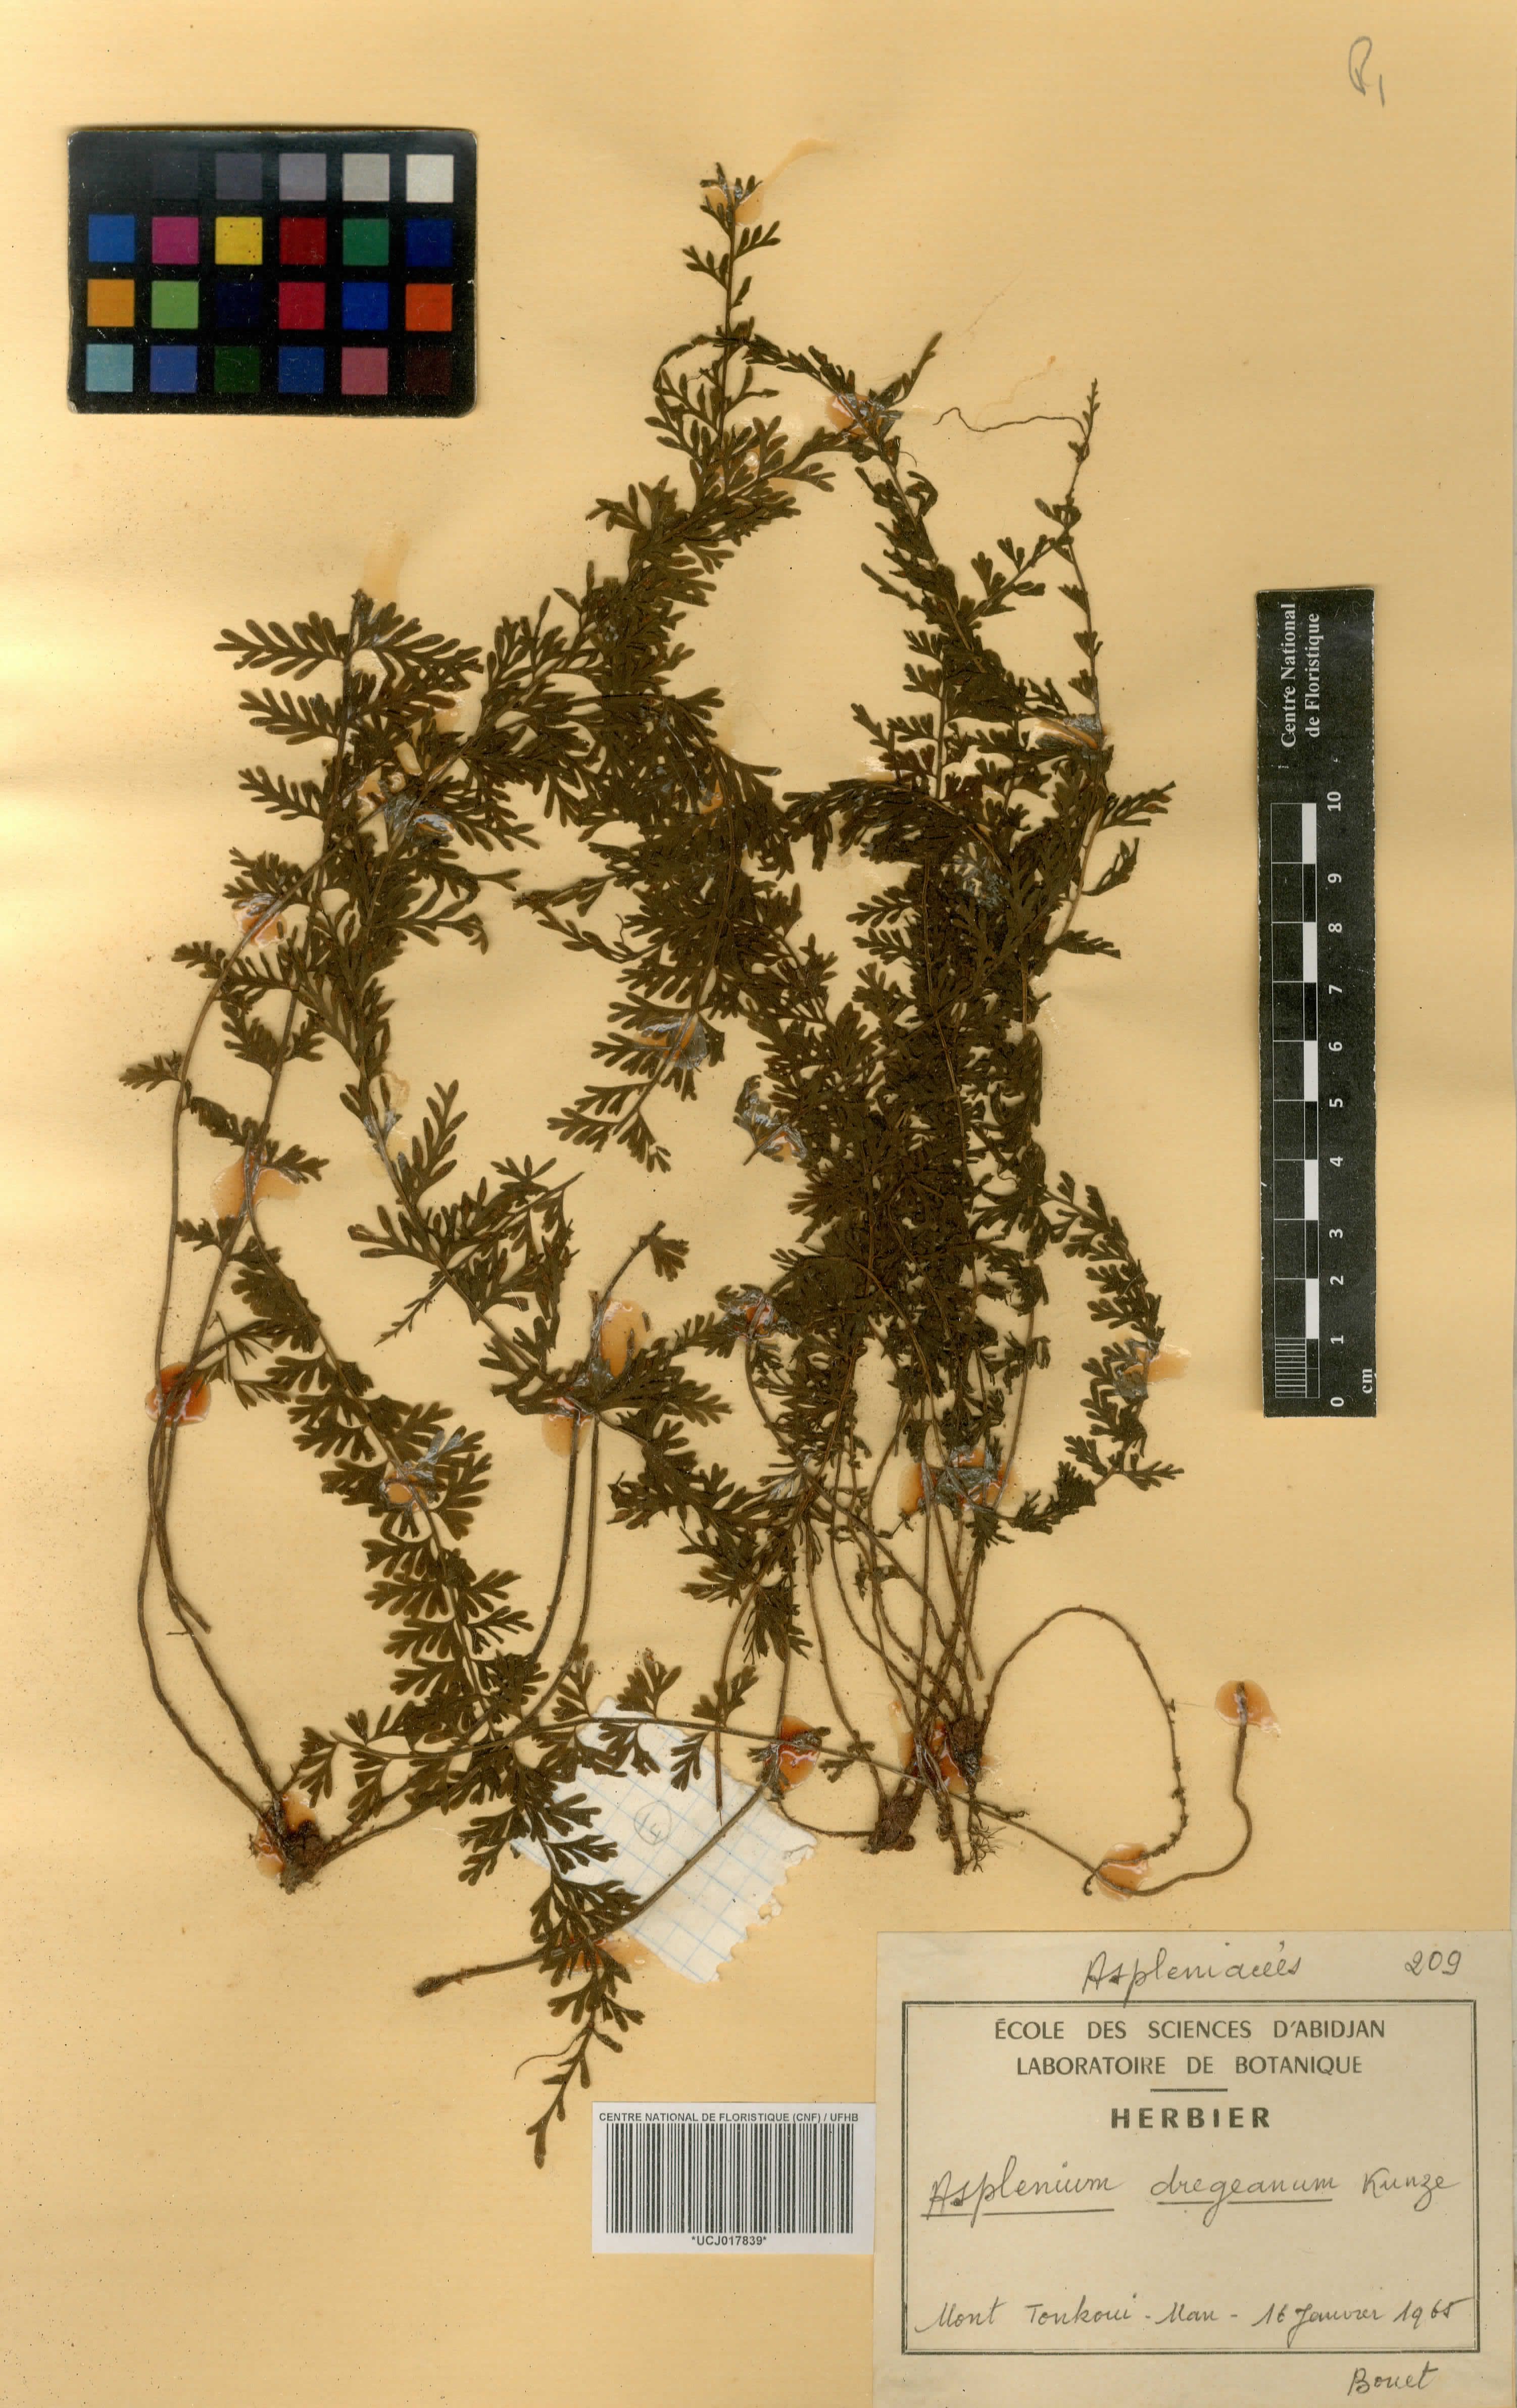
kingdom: Plantae
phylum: Tracheophyta
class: Polypodiopsida
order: Polypodiales
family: Aspleniaceae
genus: Asplenium
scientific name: Asplenium dregeanum
